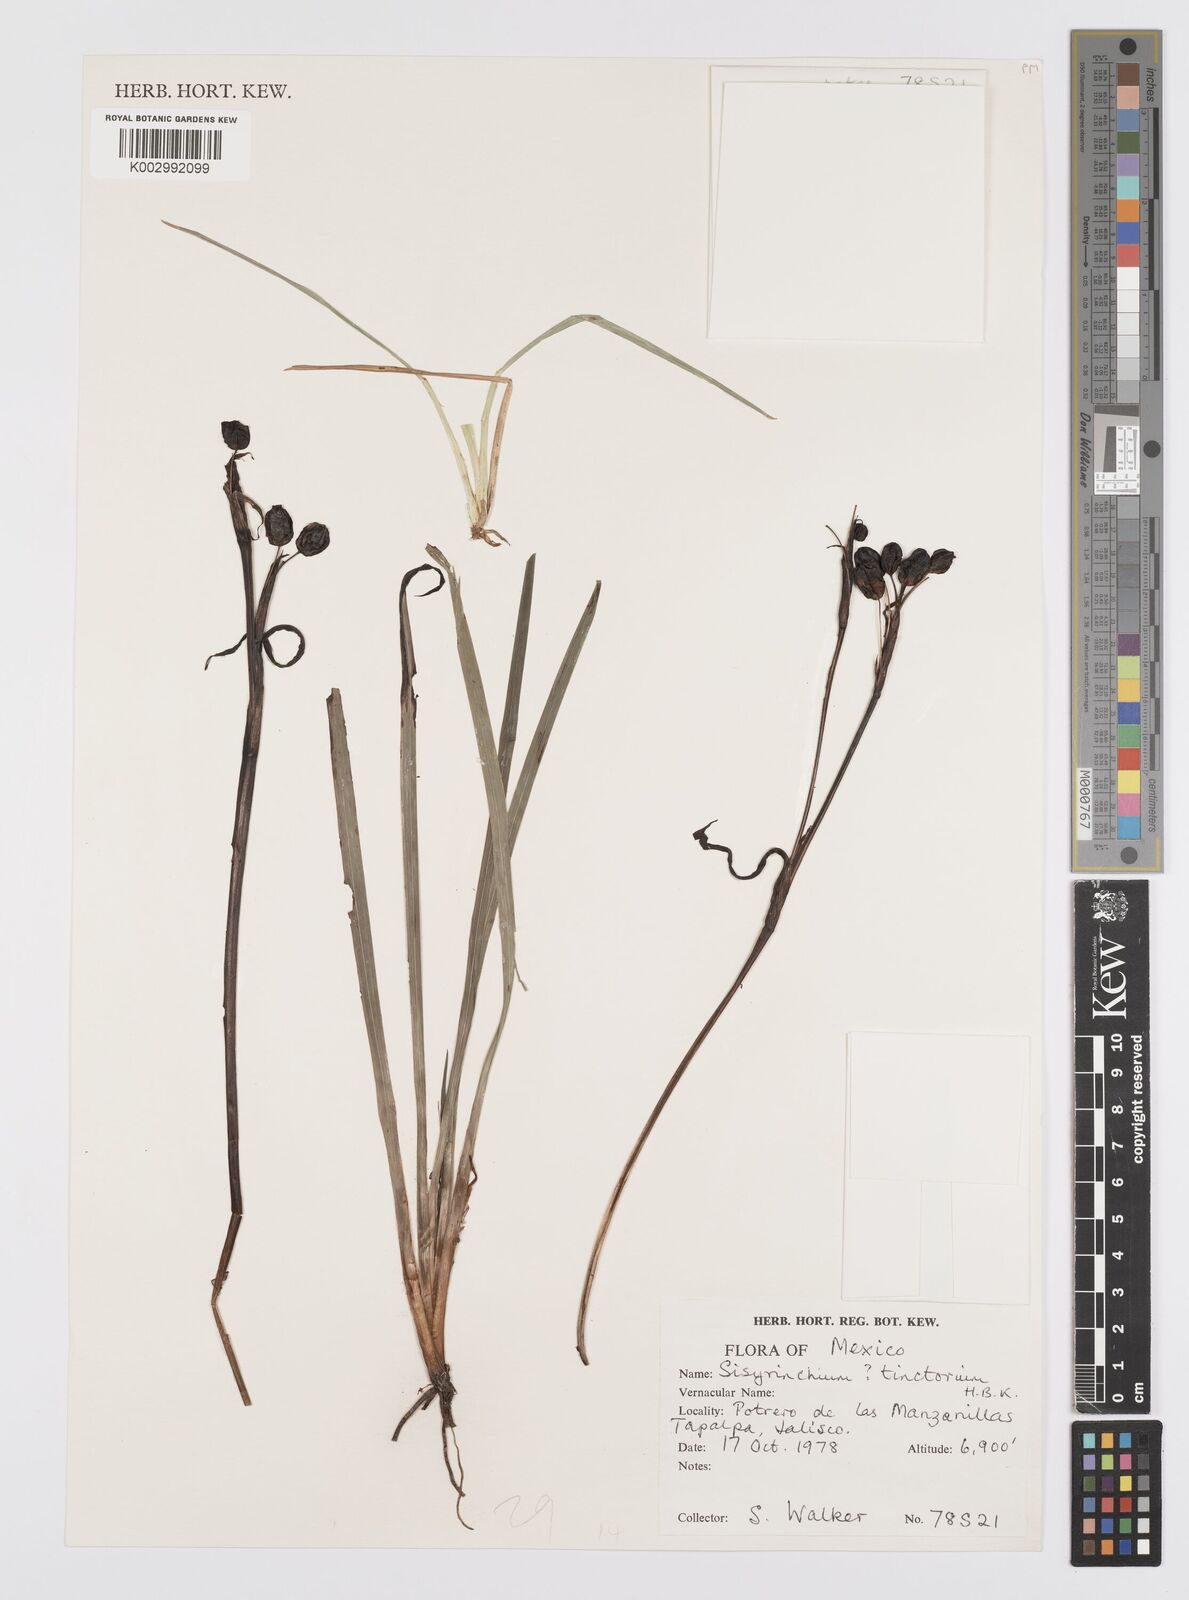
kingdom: Plantae
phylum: Tracheophyta
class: Liliopsida
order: Asparagales
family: Iridaceae
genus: Sisyrinchium
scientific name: Sisyrinchium tinctorium
